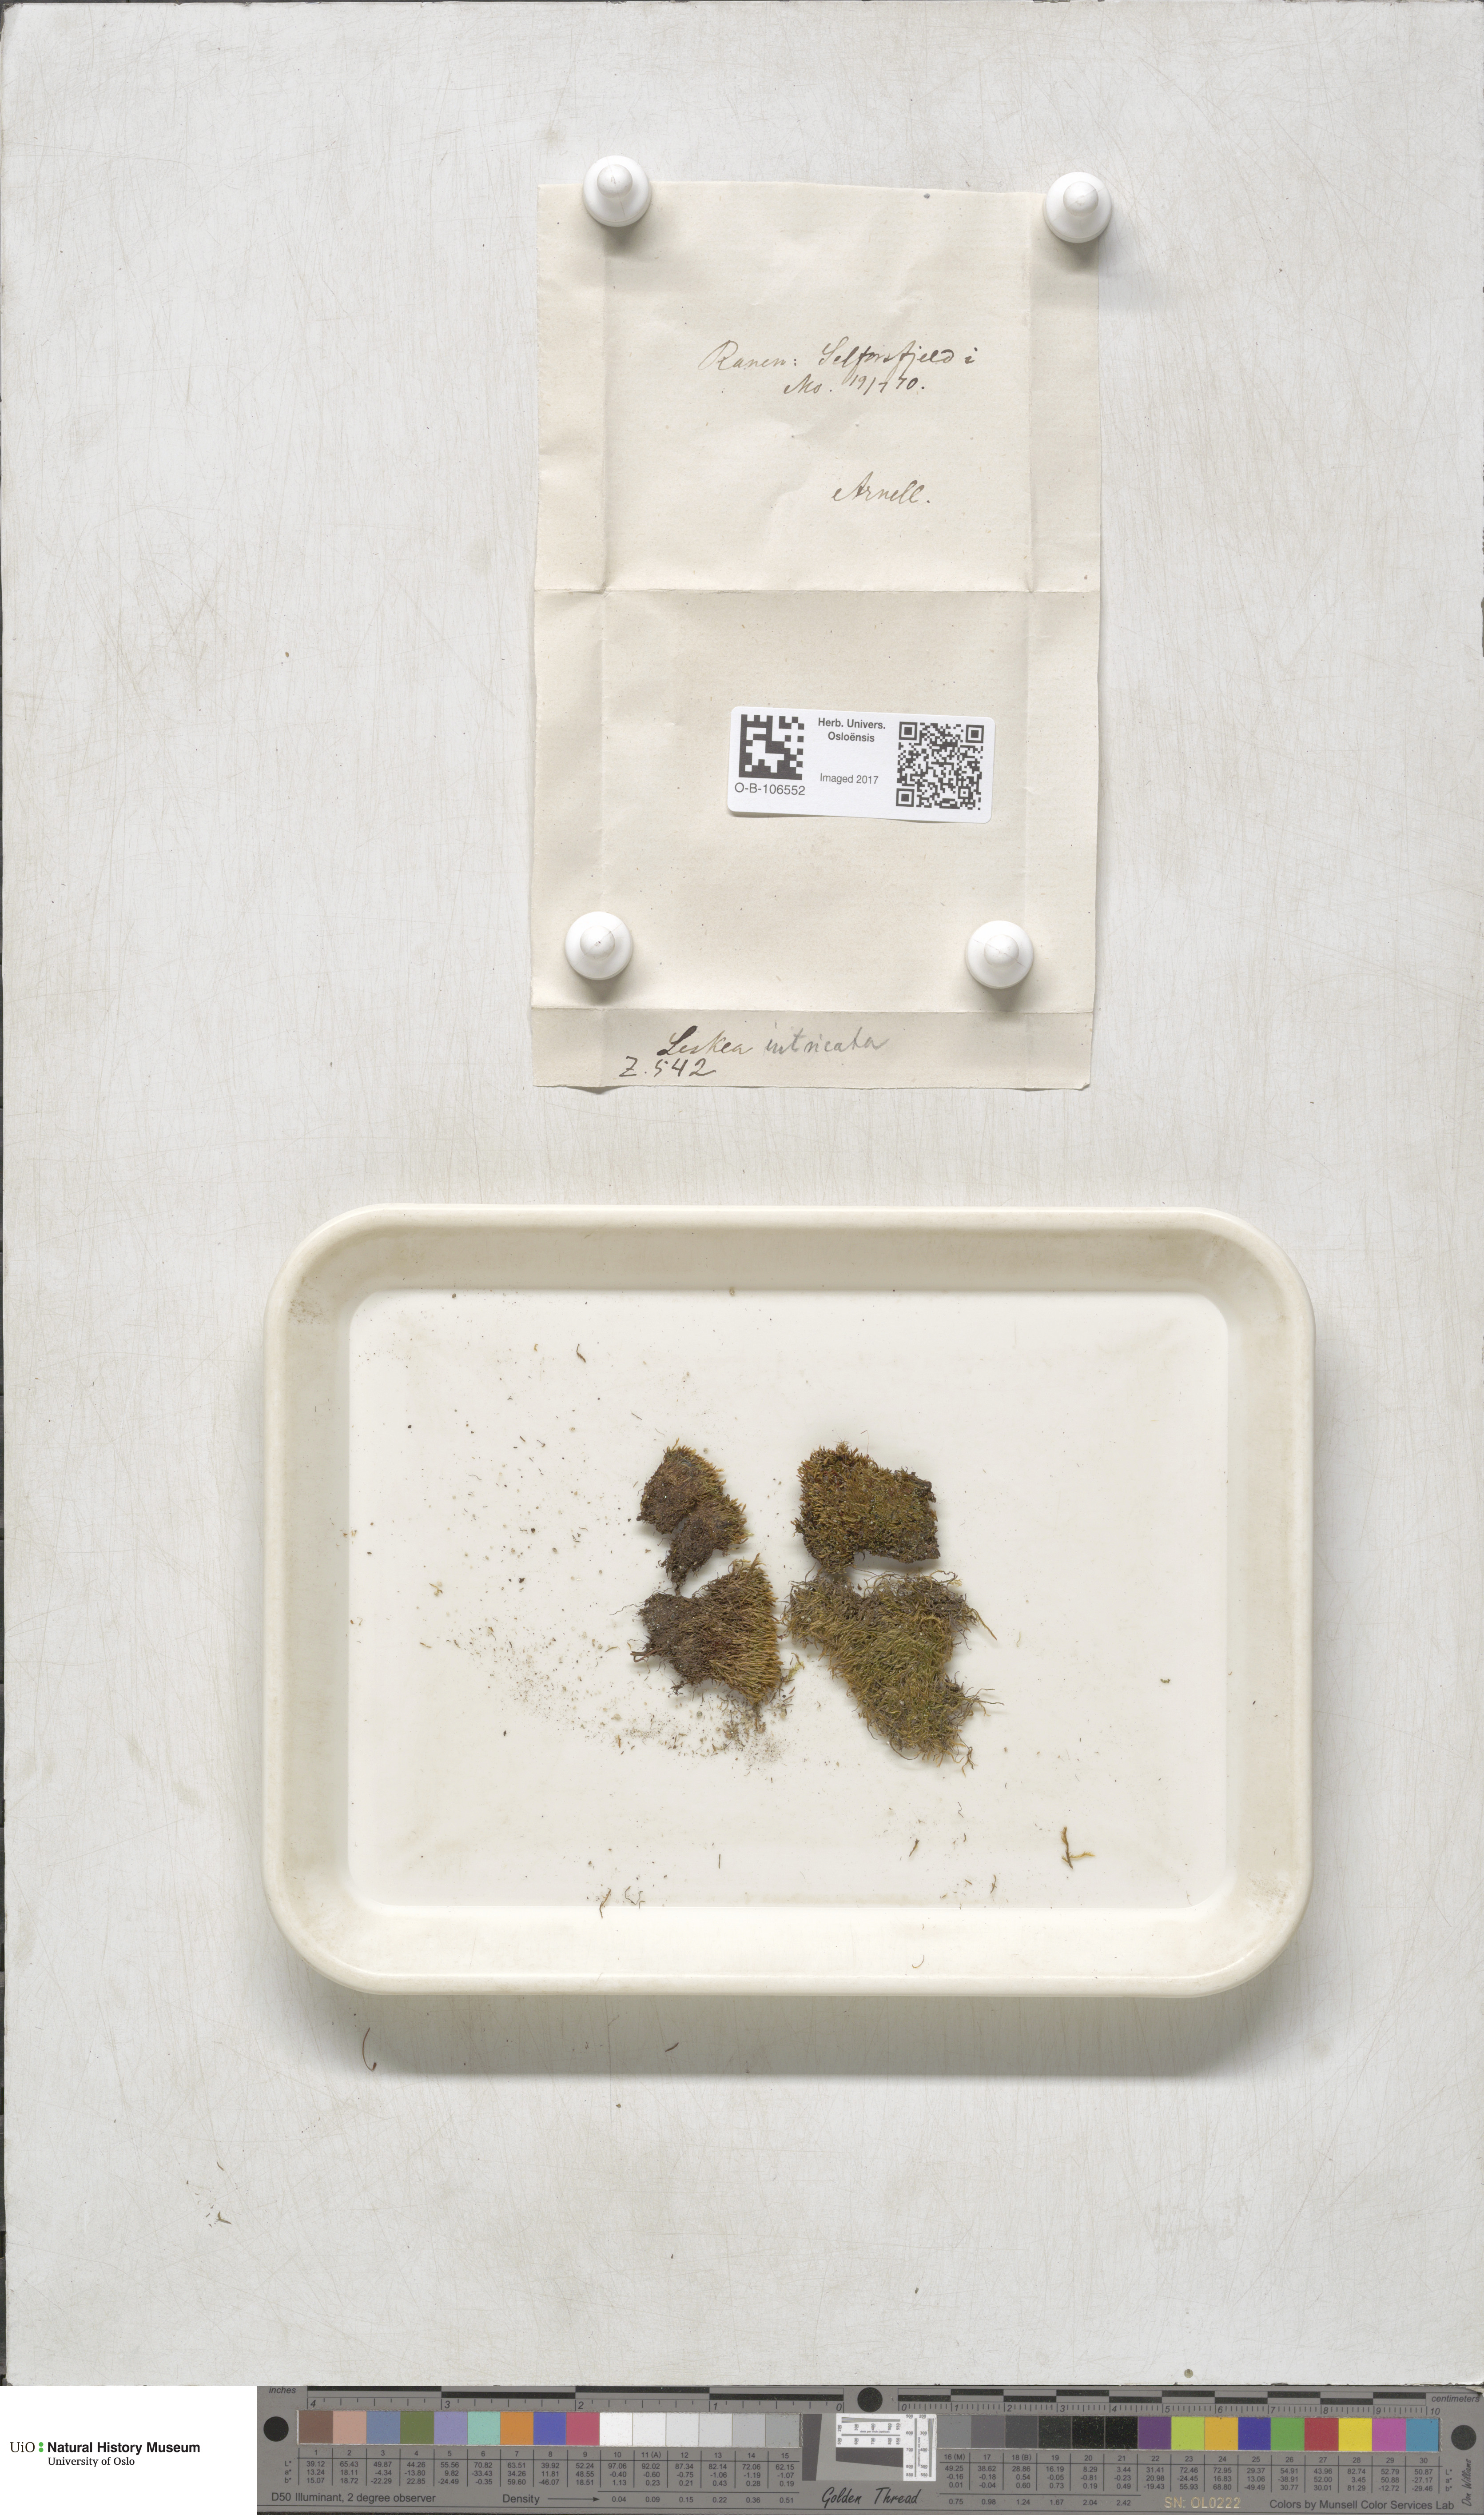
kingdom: Plantae
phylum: Bryophyta
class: Bryopsida
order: Hypnales
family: Plagiotheciaceae
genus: Orthothecium
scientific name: Orthothecium intricatum
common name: Fine-leaved erect-capsule moss
